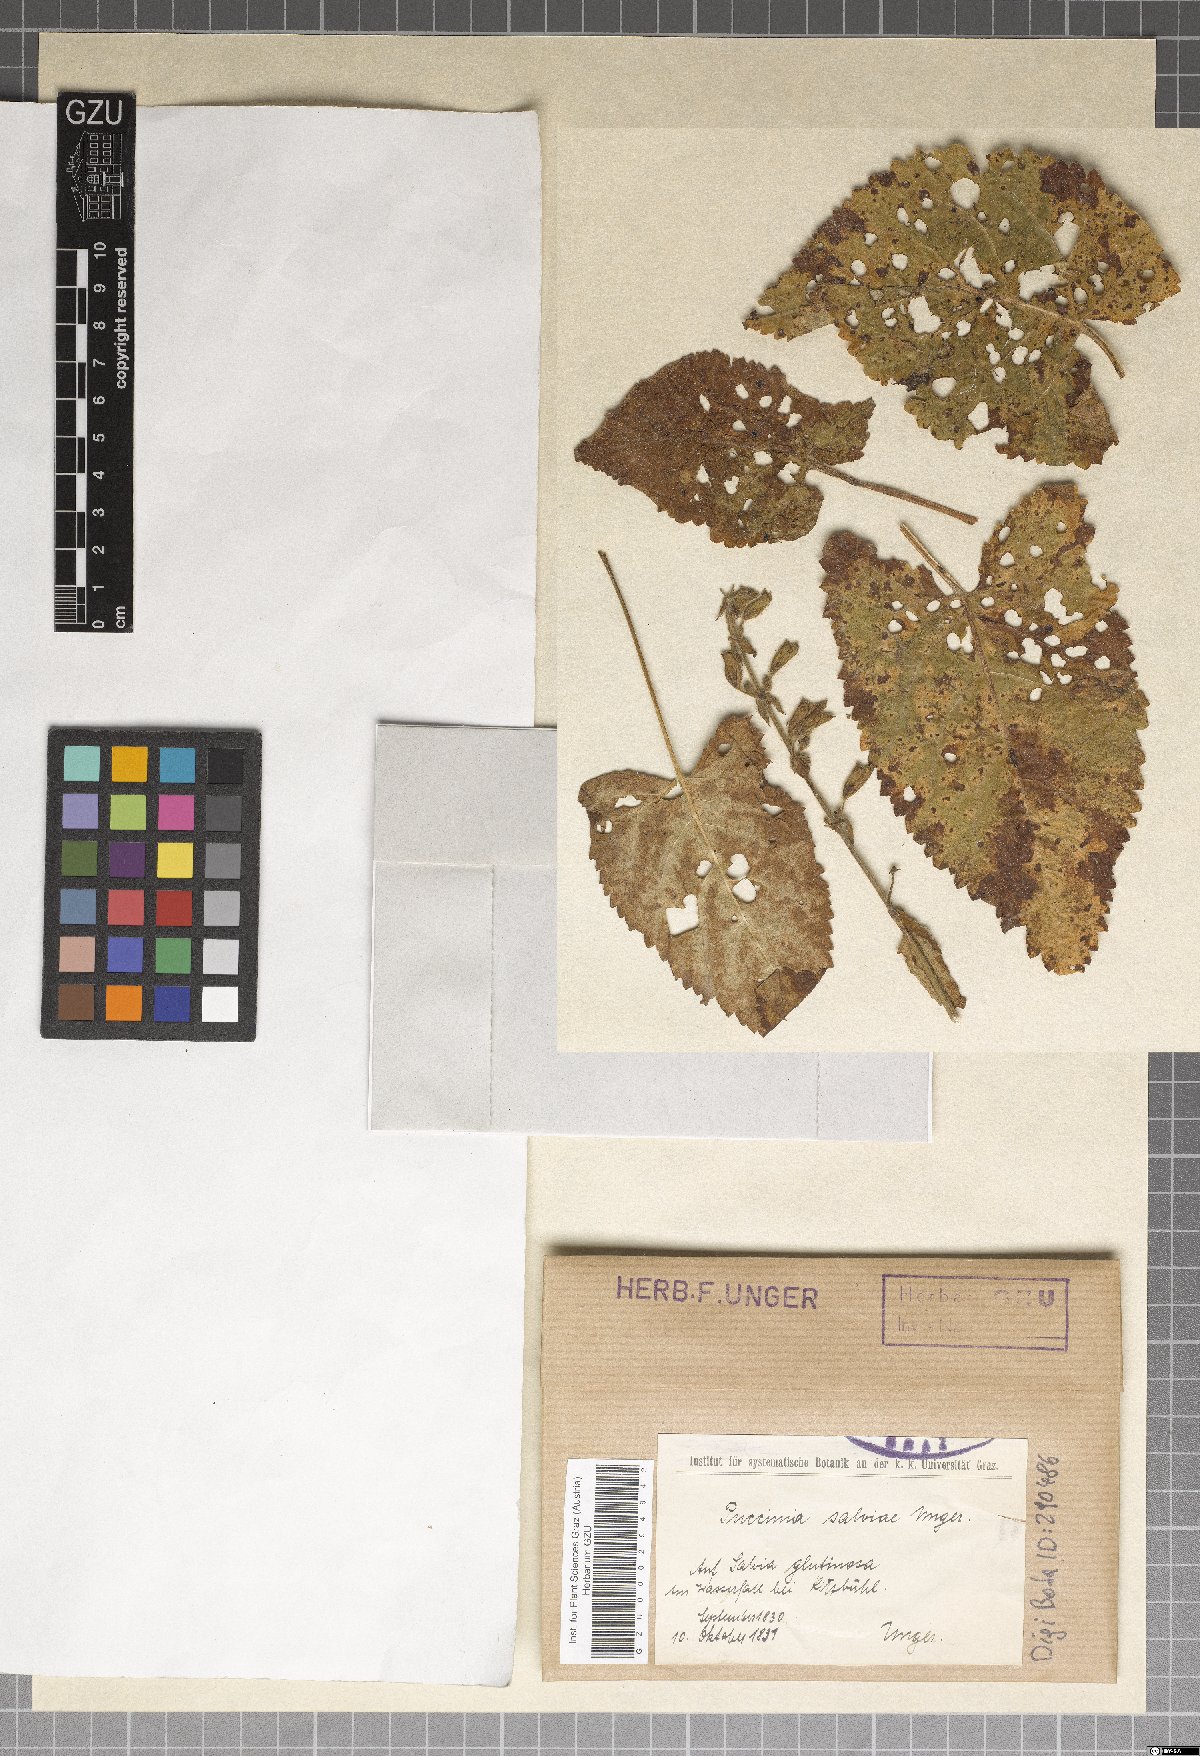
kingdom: Fungi
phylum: Basidiomycota
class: Pucciniomycetes
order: Pucciniales
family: Pucciniaceae
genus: Puccinia
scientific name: Puccinia salviae
